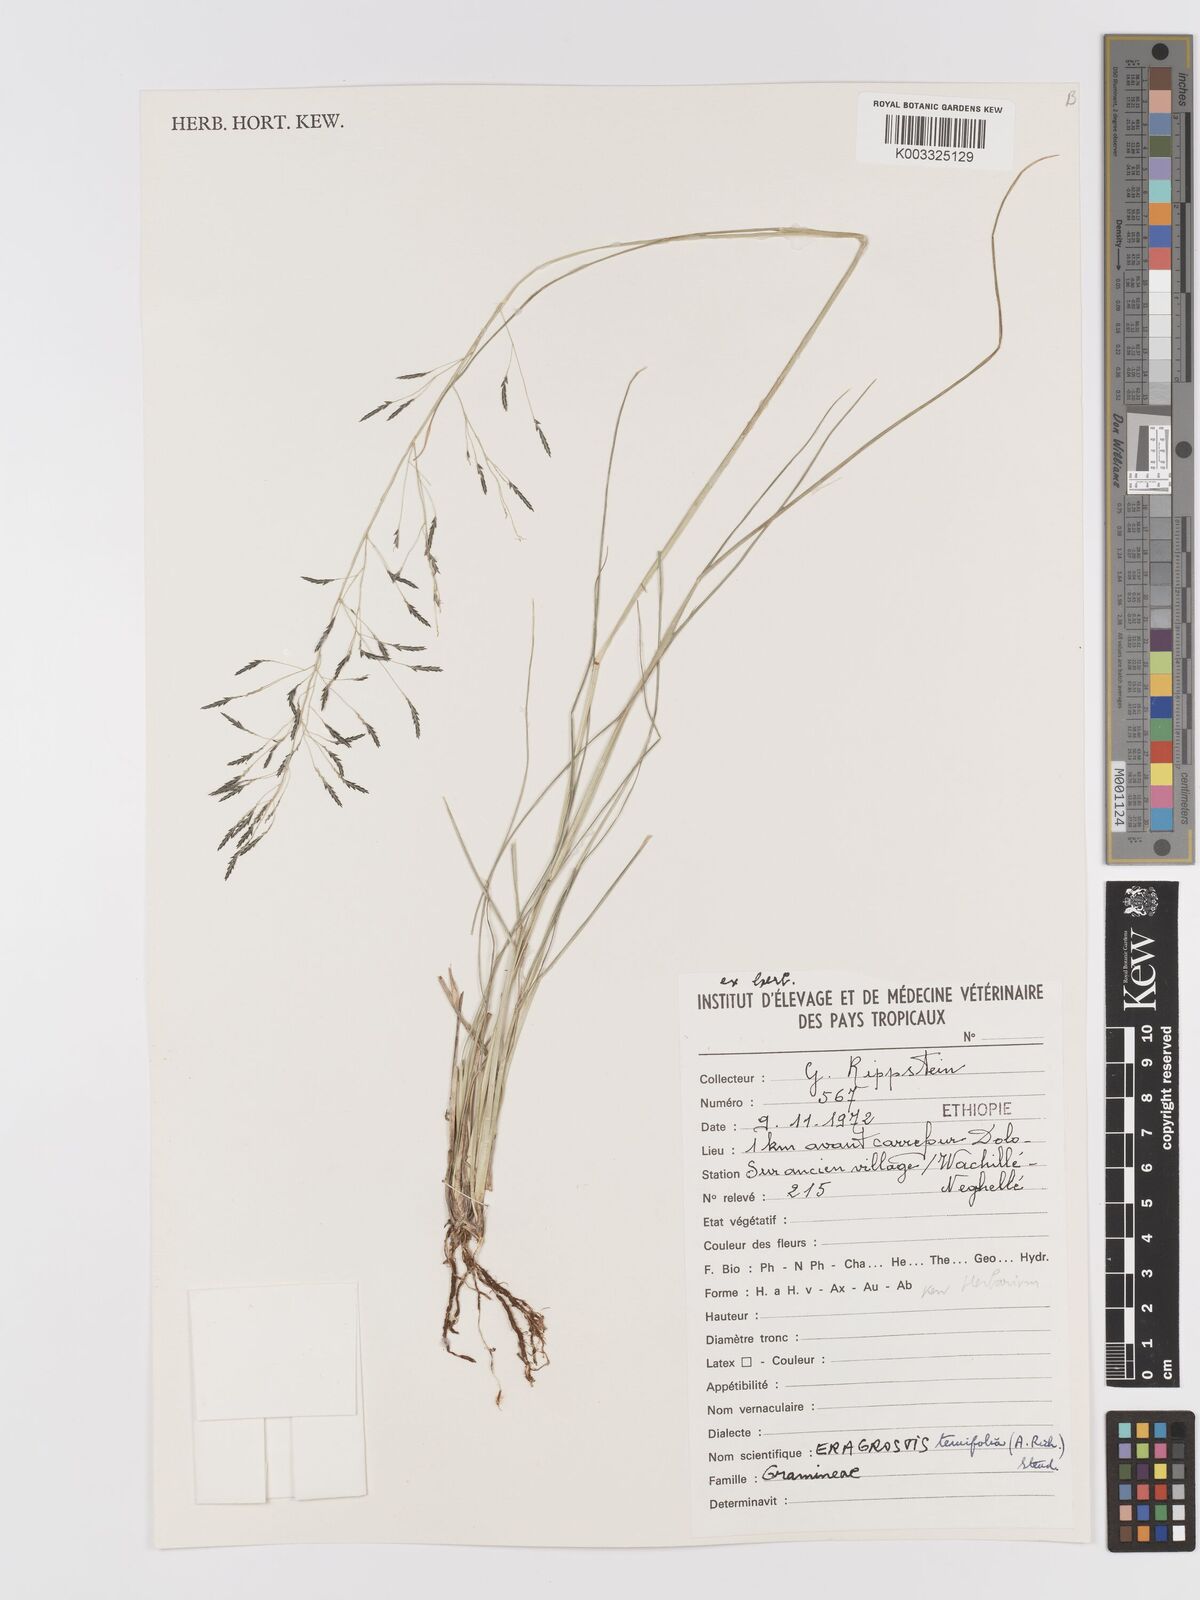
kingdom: Plantae
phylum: Tracheophyta
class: Liliopsida
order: Poales
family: Poaceae
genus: Eragrostis
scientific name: Eragrostis tenuifolia
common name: Elastic grass
